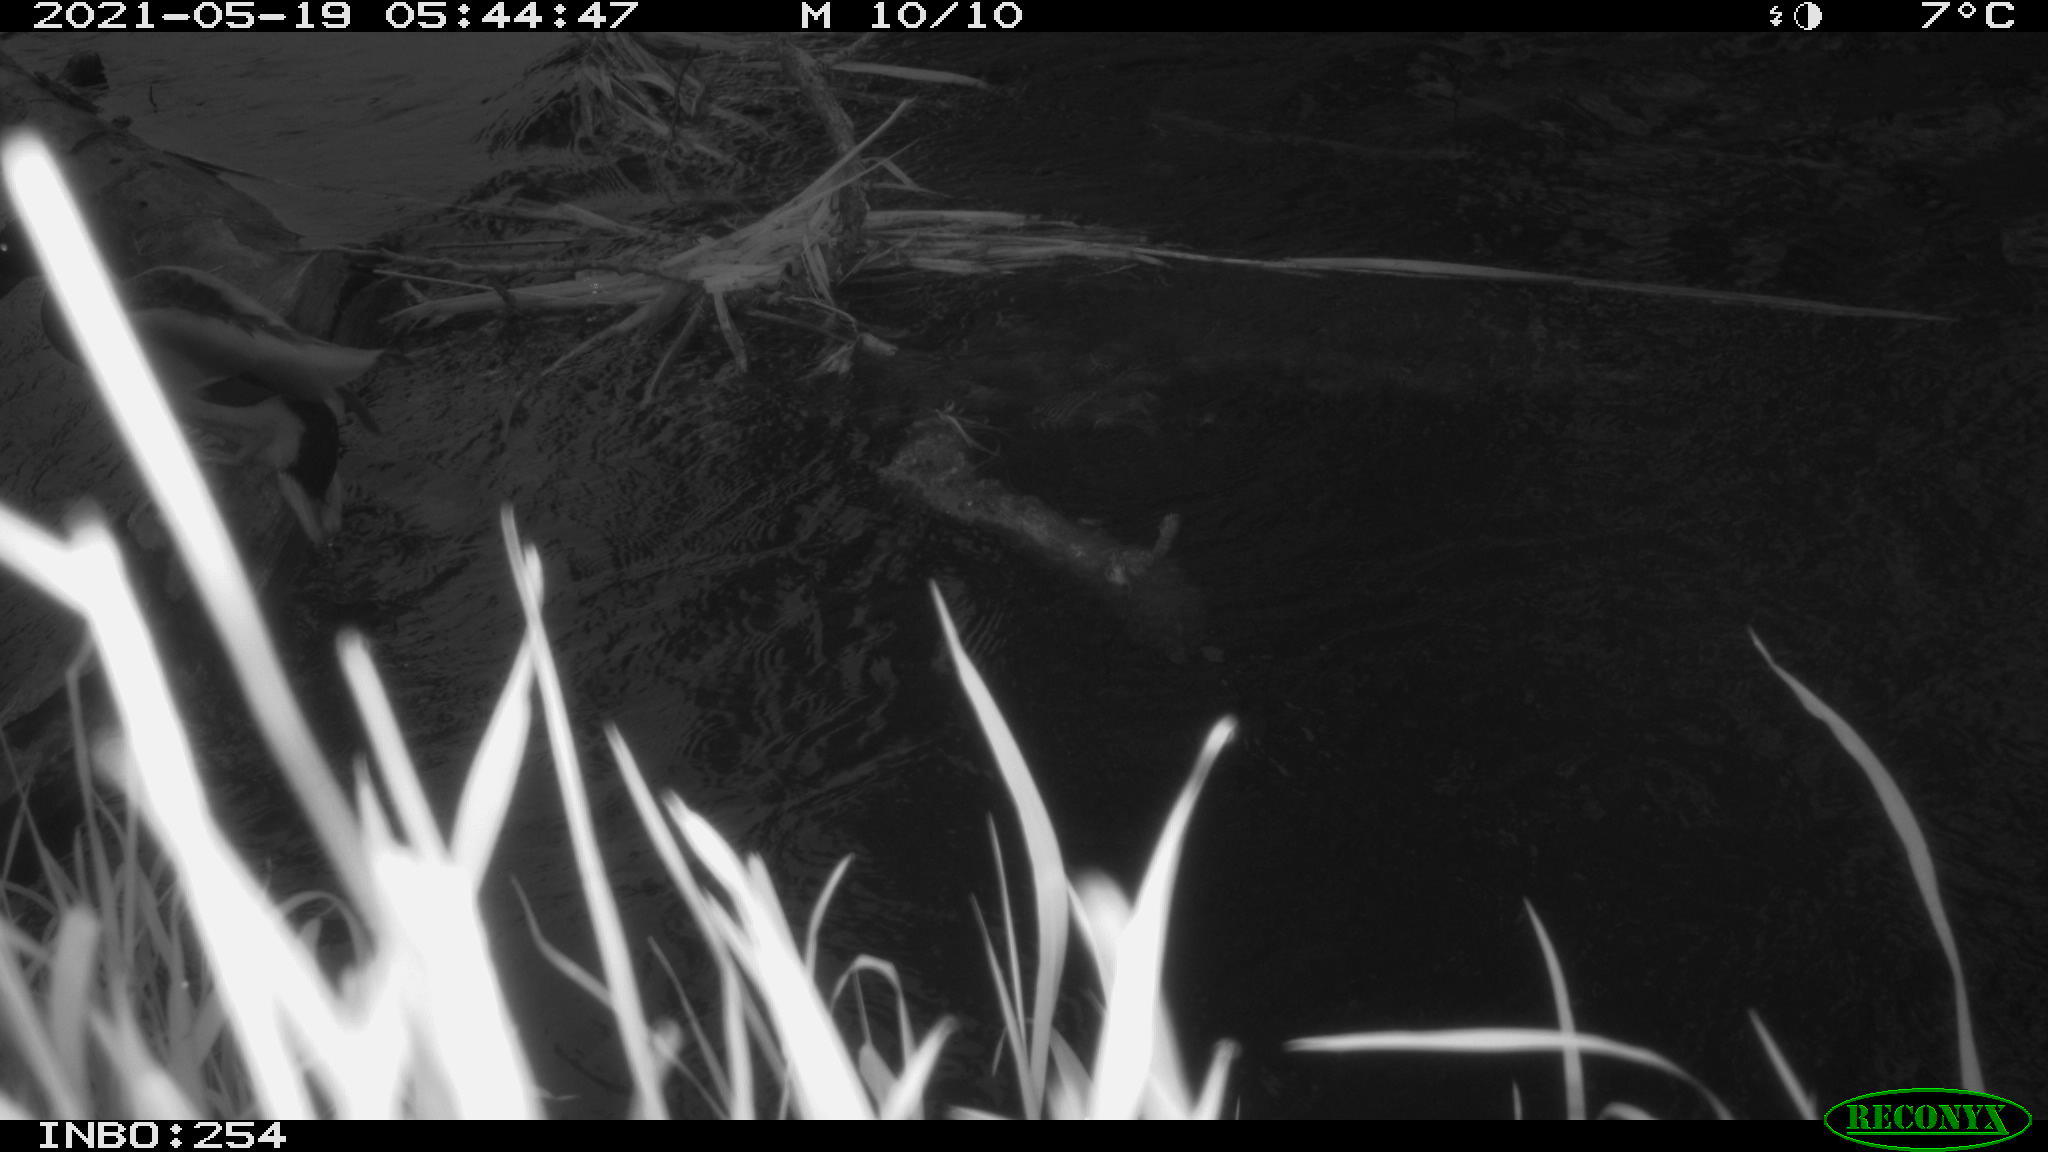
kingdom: Animalia
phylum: Chordata
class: Aves
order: Anseriformes
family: Anatidae
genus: Anas
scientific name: Anas platyrhynchos
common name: Mallard
